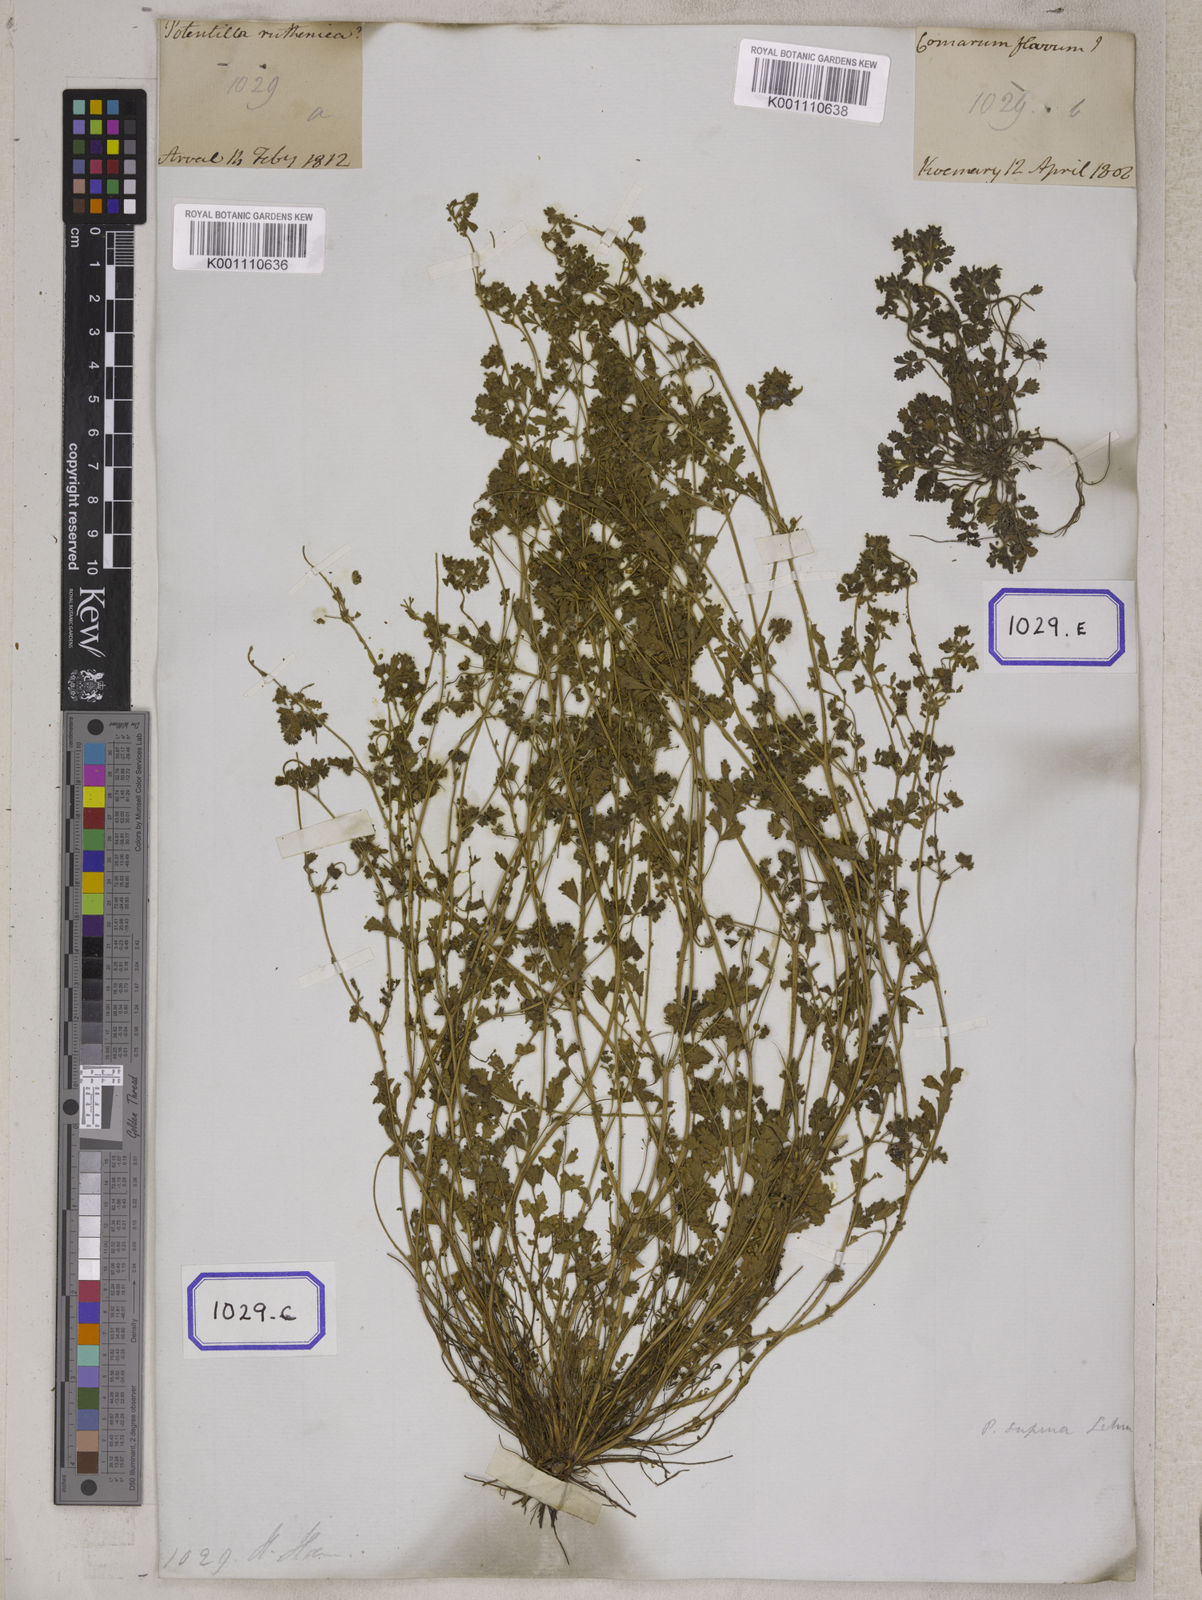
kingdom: Plantae
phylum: Tracheophyta
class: Magnoliopsida
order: Rosales
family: Rosaceae
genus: Potentilla
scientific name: Potentilla supina
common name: Prostrate cinquefoil
